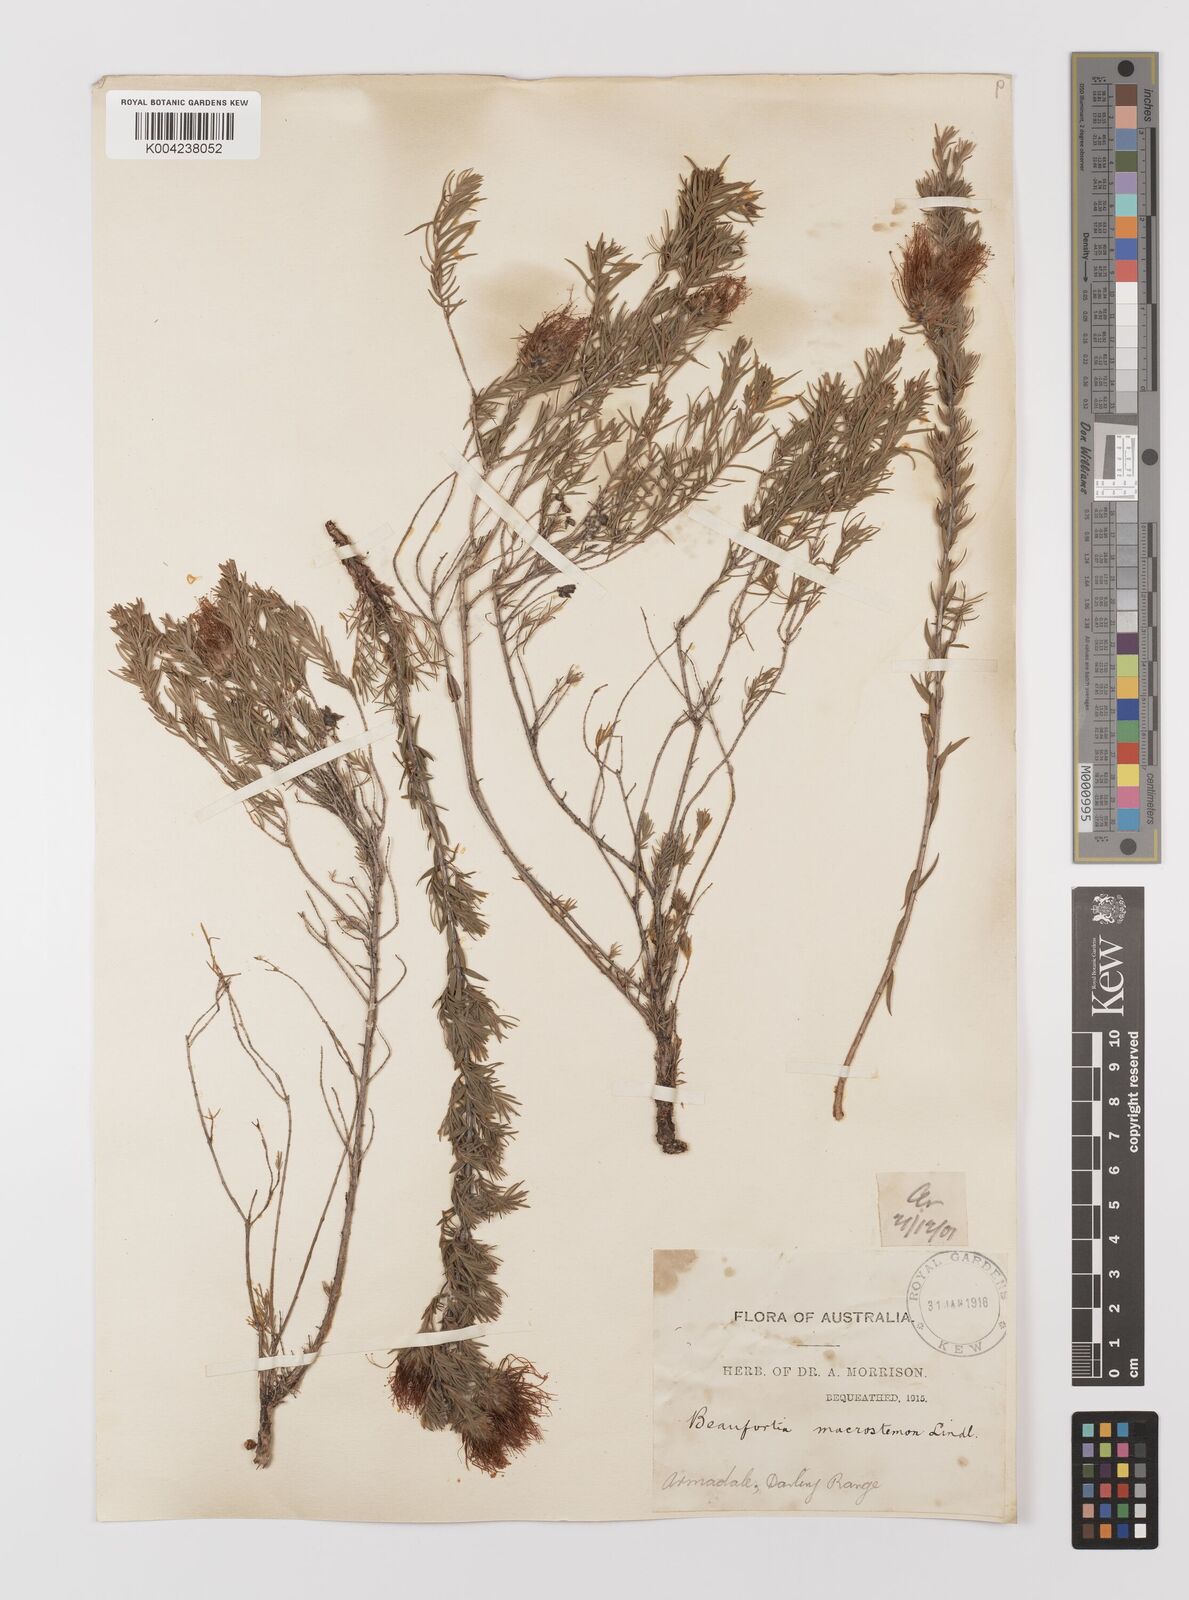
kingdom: Plantae
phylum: Tracheophyta
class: Magnoliopsida
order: Myrtales
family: Myrtaceae
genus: Melaleuca
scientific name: Melaleuca macrostemon
